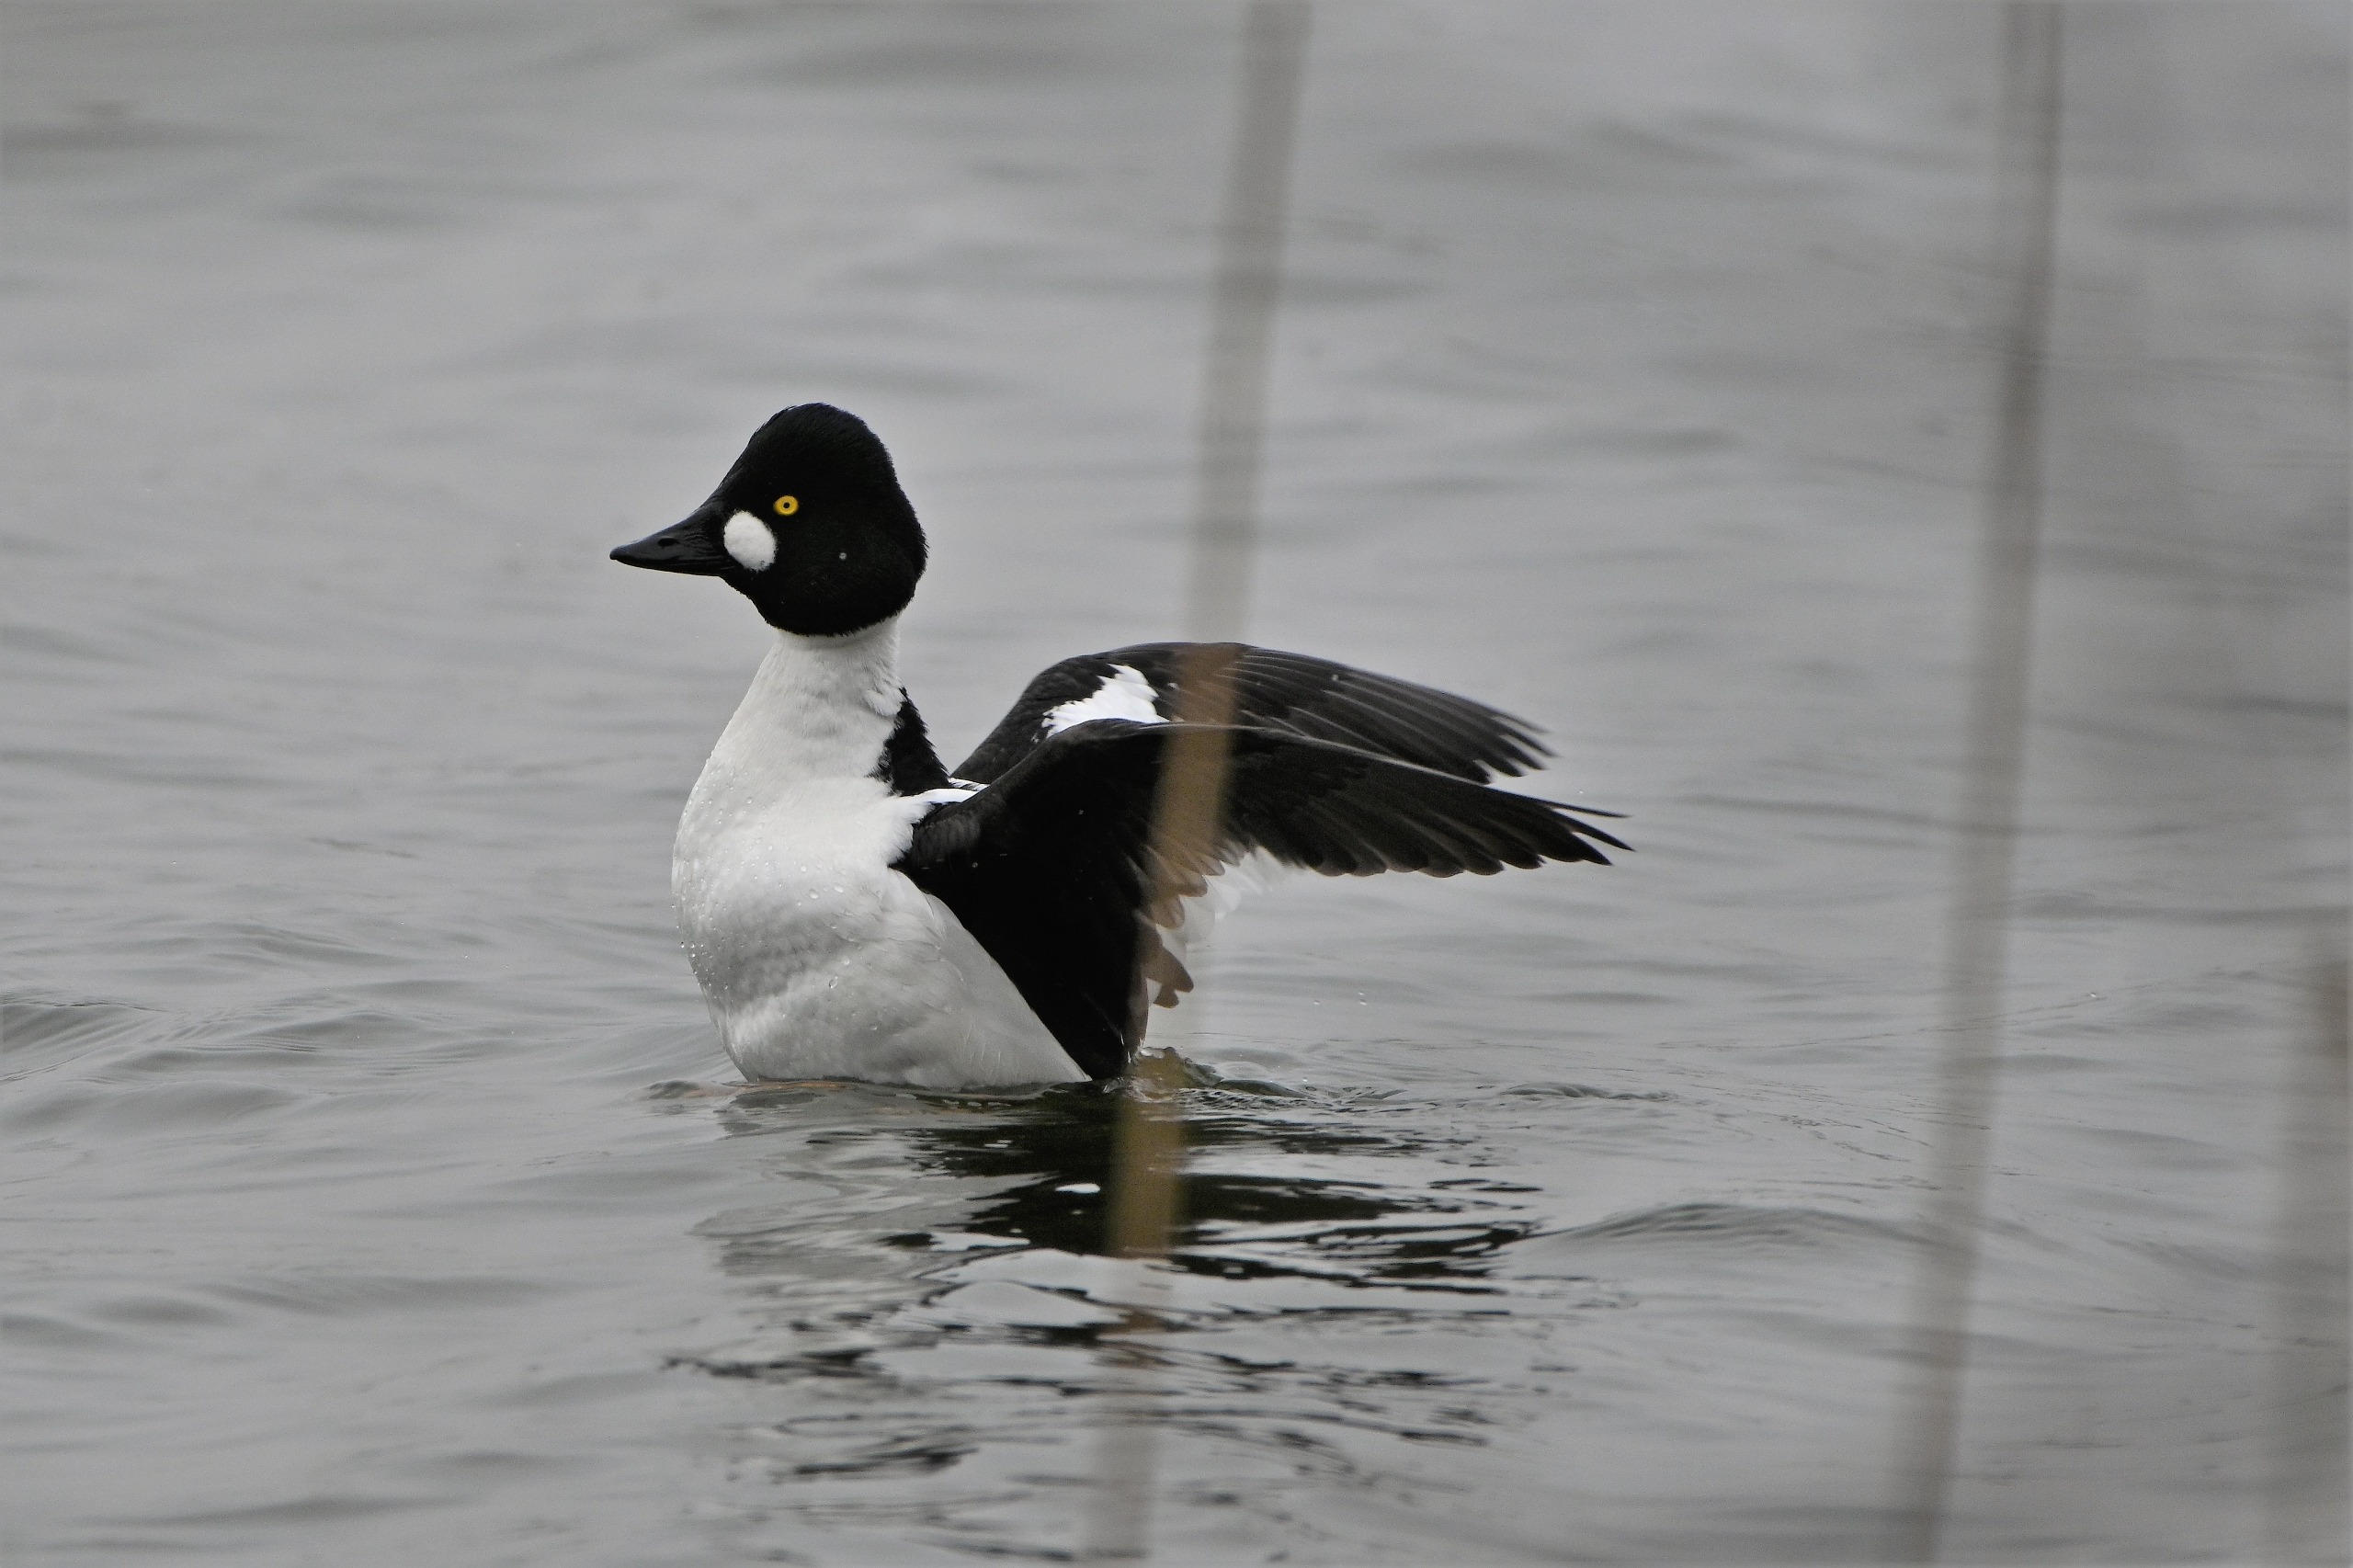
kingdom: Animalia
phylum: Chordata
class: Aves
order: Anseriformes
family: Anatidae
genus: Bucephala
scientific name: Bucephala clangula
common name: Hvinand
